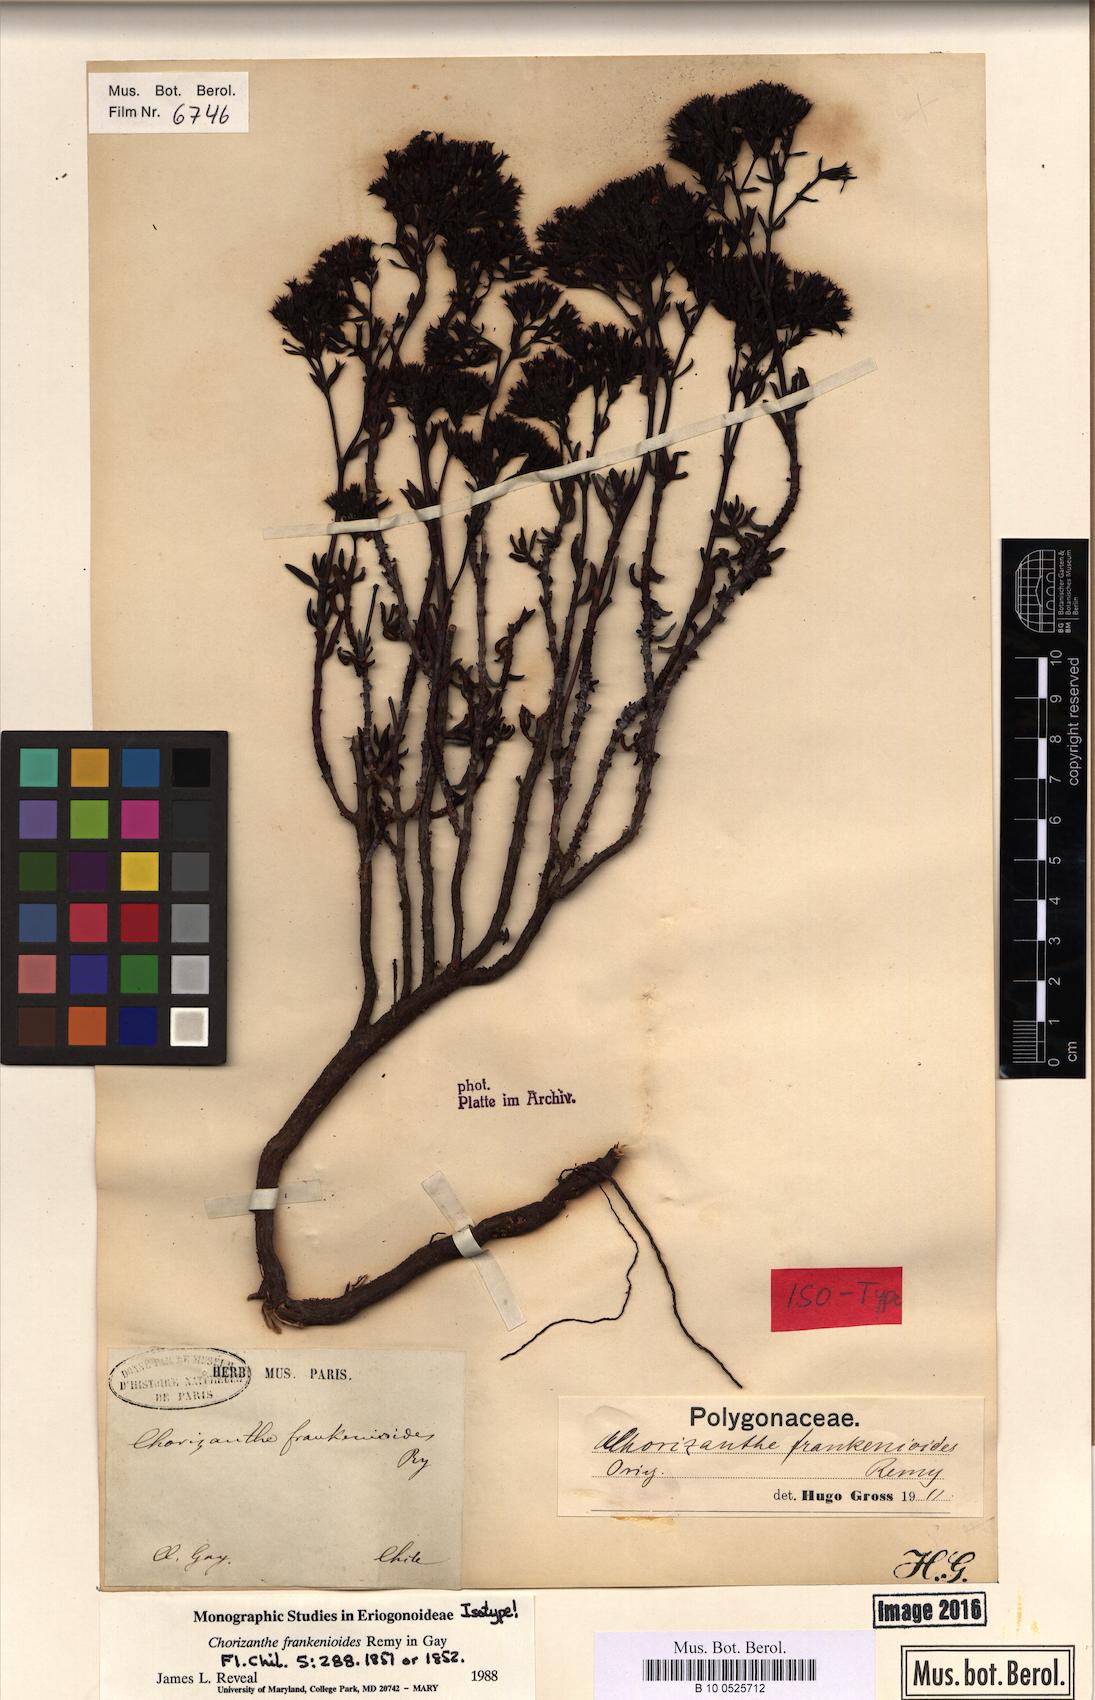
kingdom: Plantae
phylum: Tracheophyta
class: Magnoliopsida
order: Caryophyllales
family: Polygonaceae
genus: Chorizanthe
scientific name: Chorizanthe frankenioides
